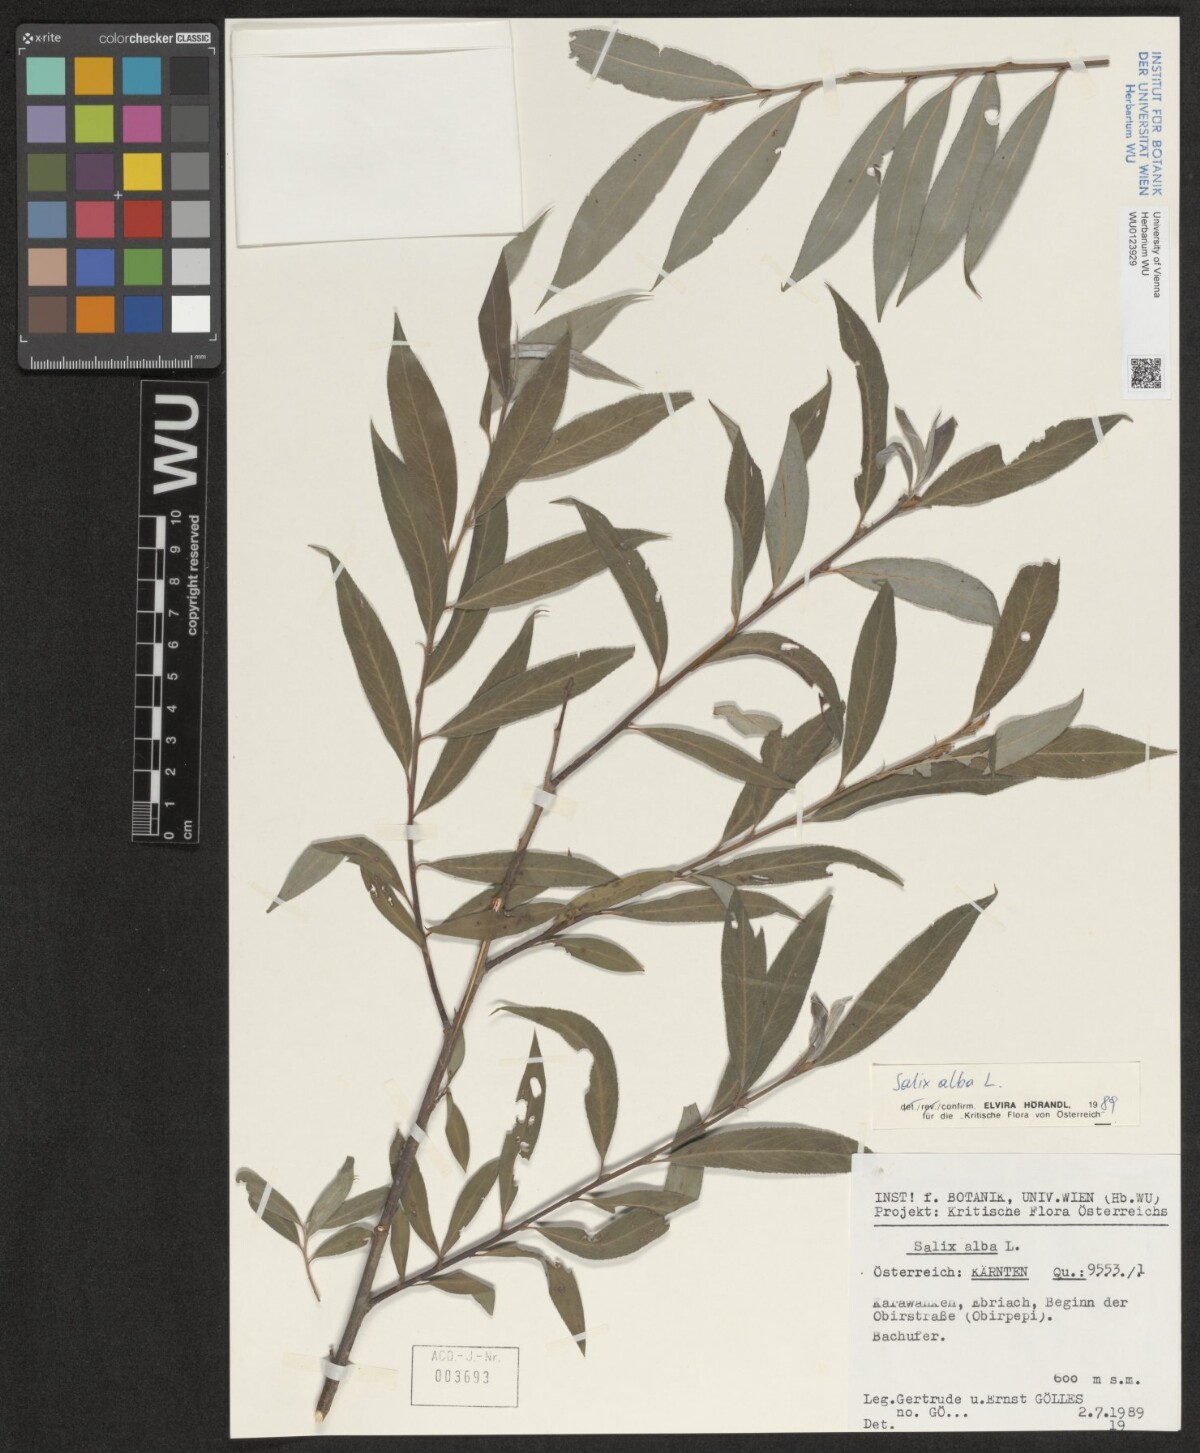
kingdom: Plantae
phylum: Tracheophyta
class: Magnoliopsida
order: Malpighiales
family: Salicaceae
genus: Salix
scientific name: Salix alba
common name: White willow
